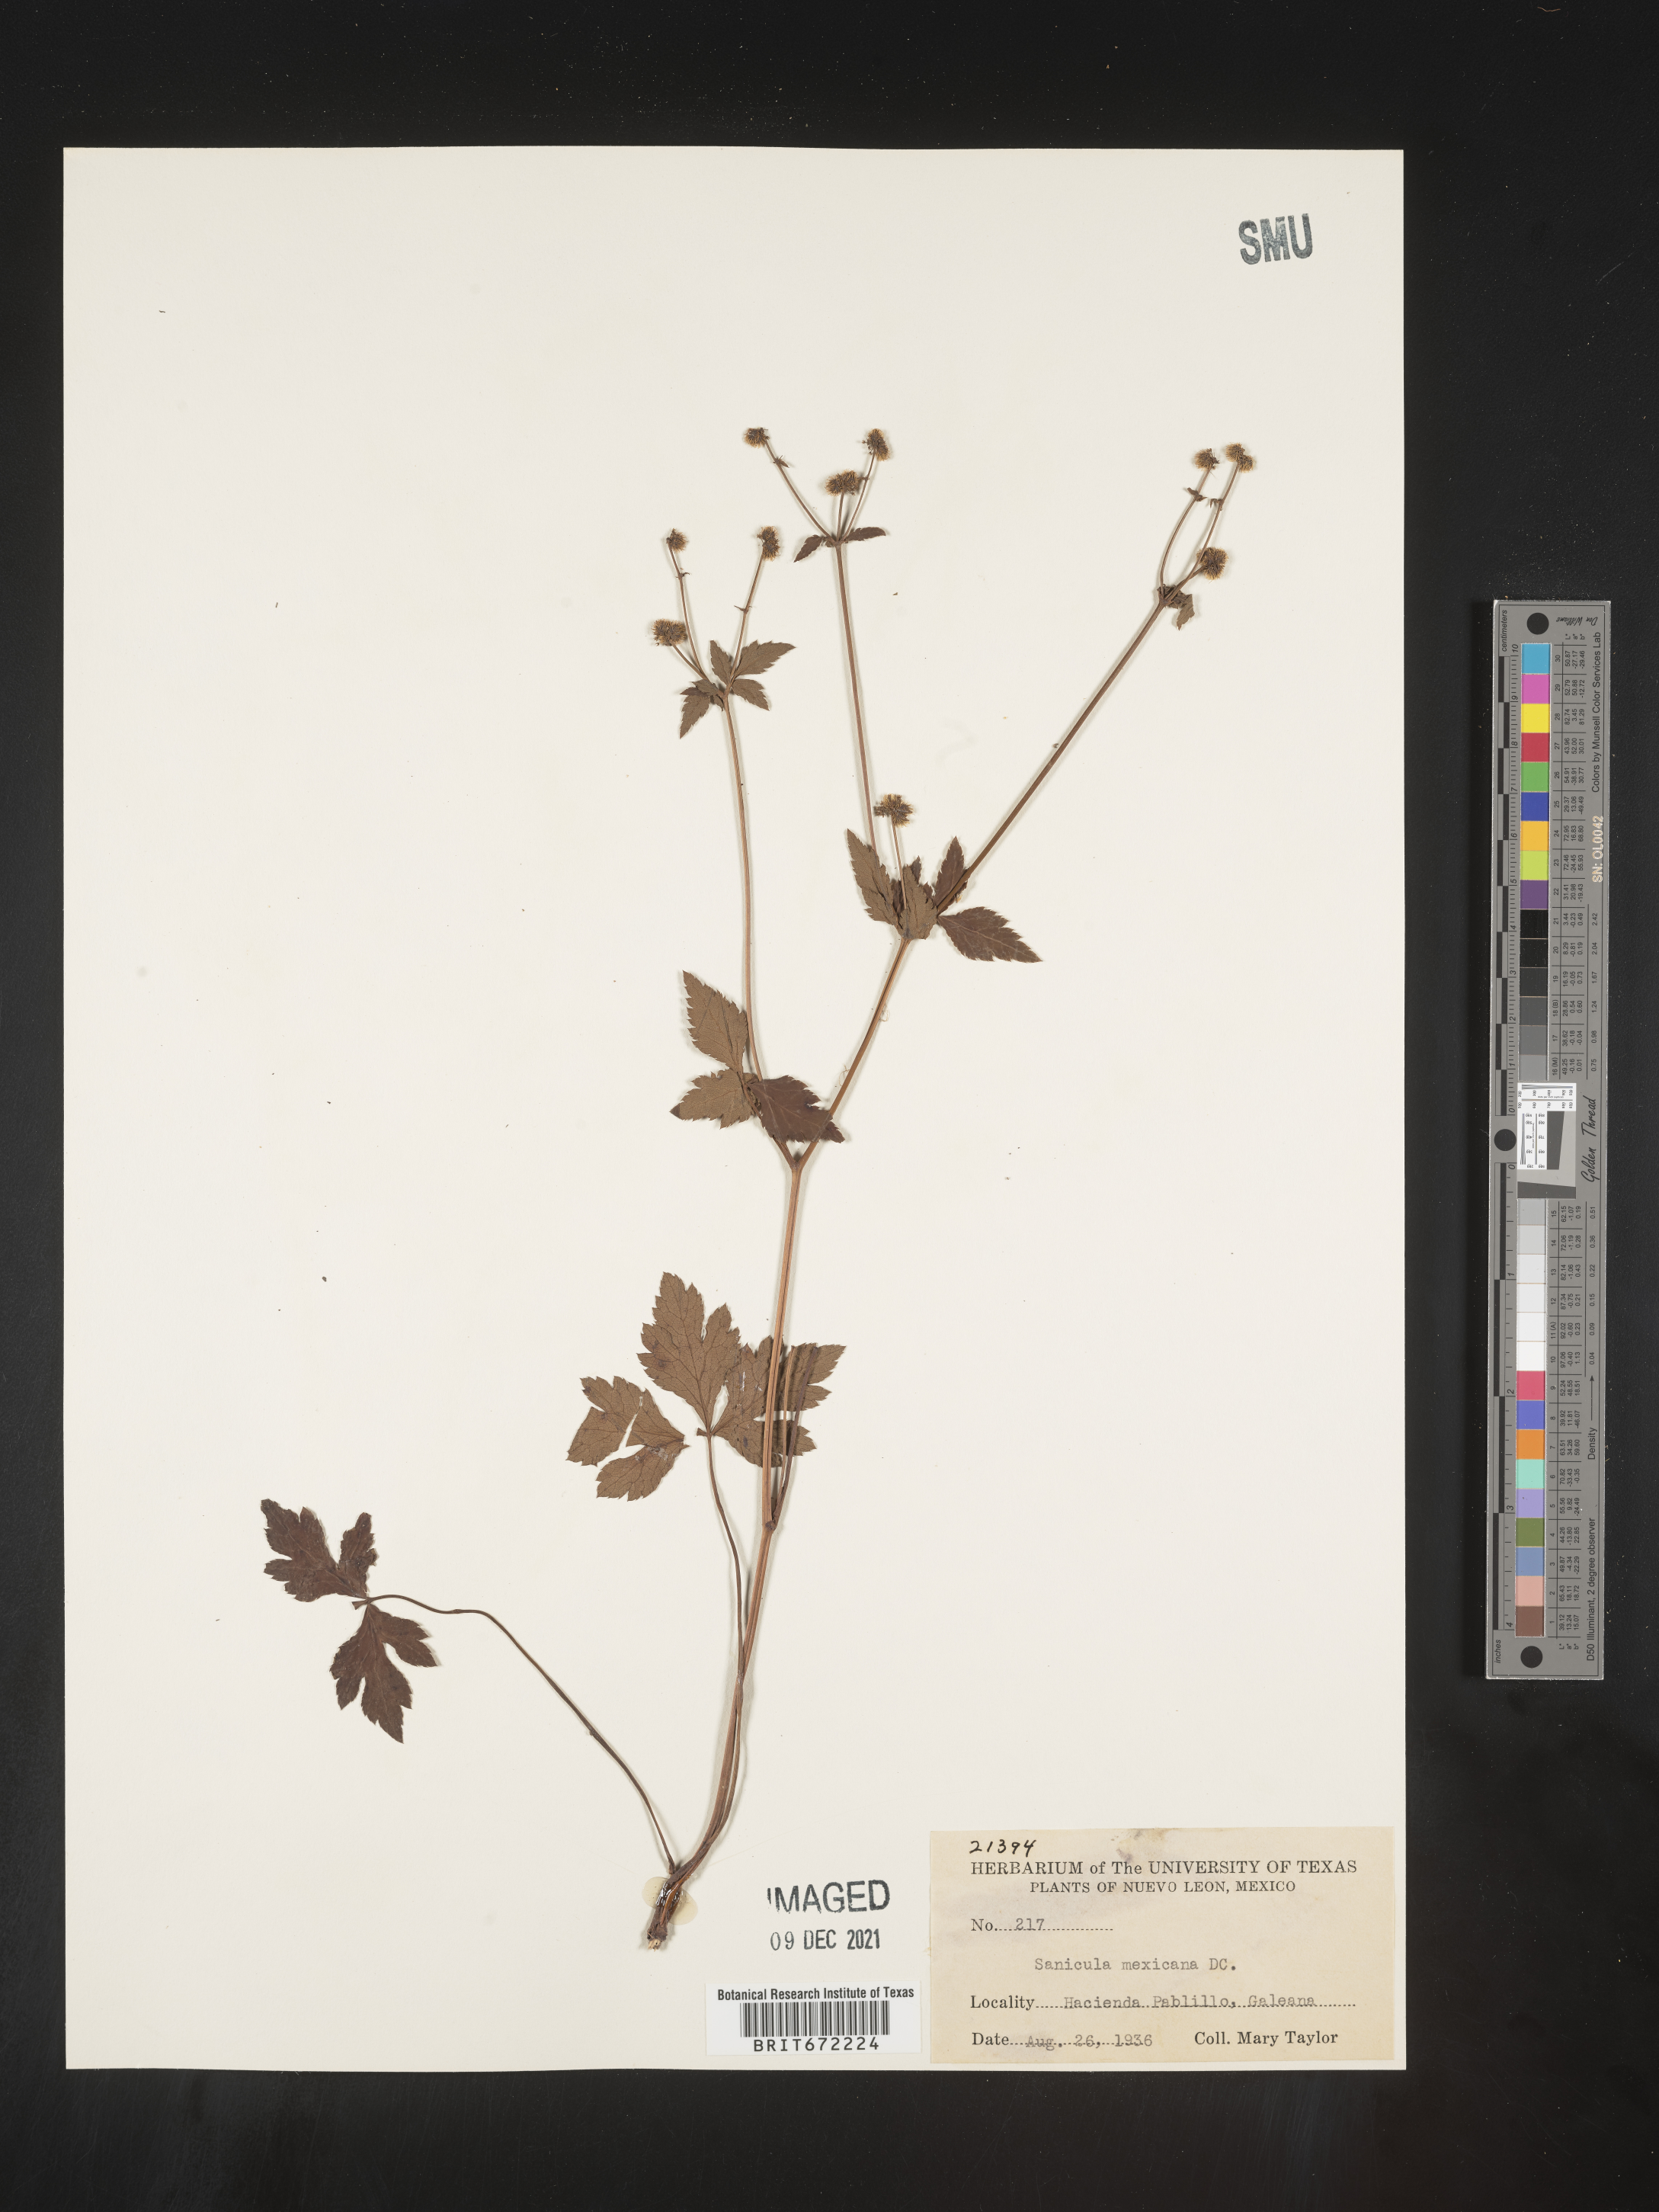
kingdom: Plantae
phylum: Tracheophyta
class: Magnoliopsida
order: Apiales
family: Apiaceae
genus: Sanicula
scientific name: Sanicula
